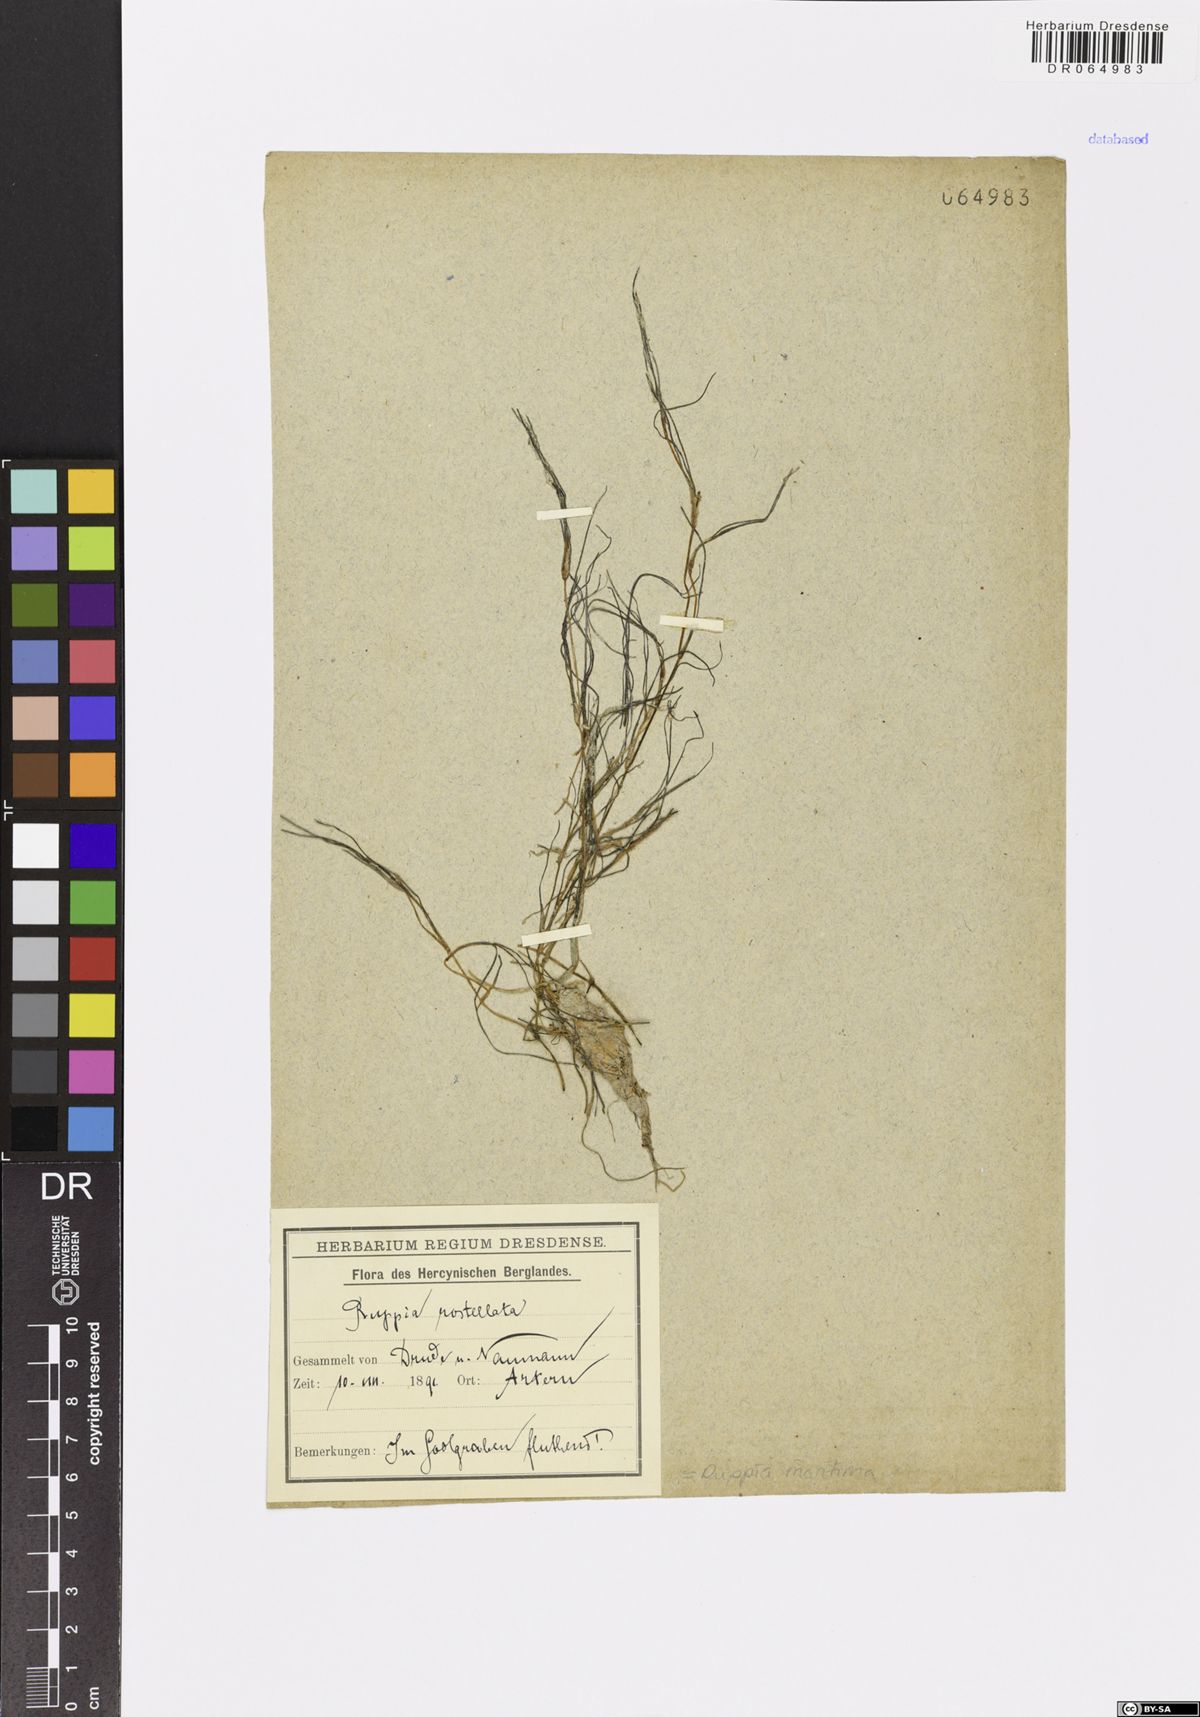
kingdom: Plantae
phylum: Tracheophyta
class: Liliopsida
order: Alismatales
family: Ruppiaceae
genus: Ruppia
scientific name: Ruppia maritima
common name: Beaked tasselweed
